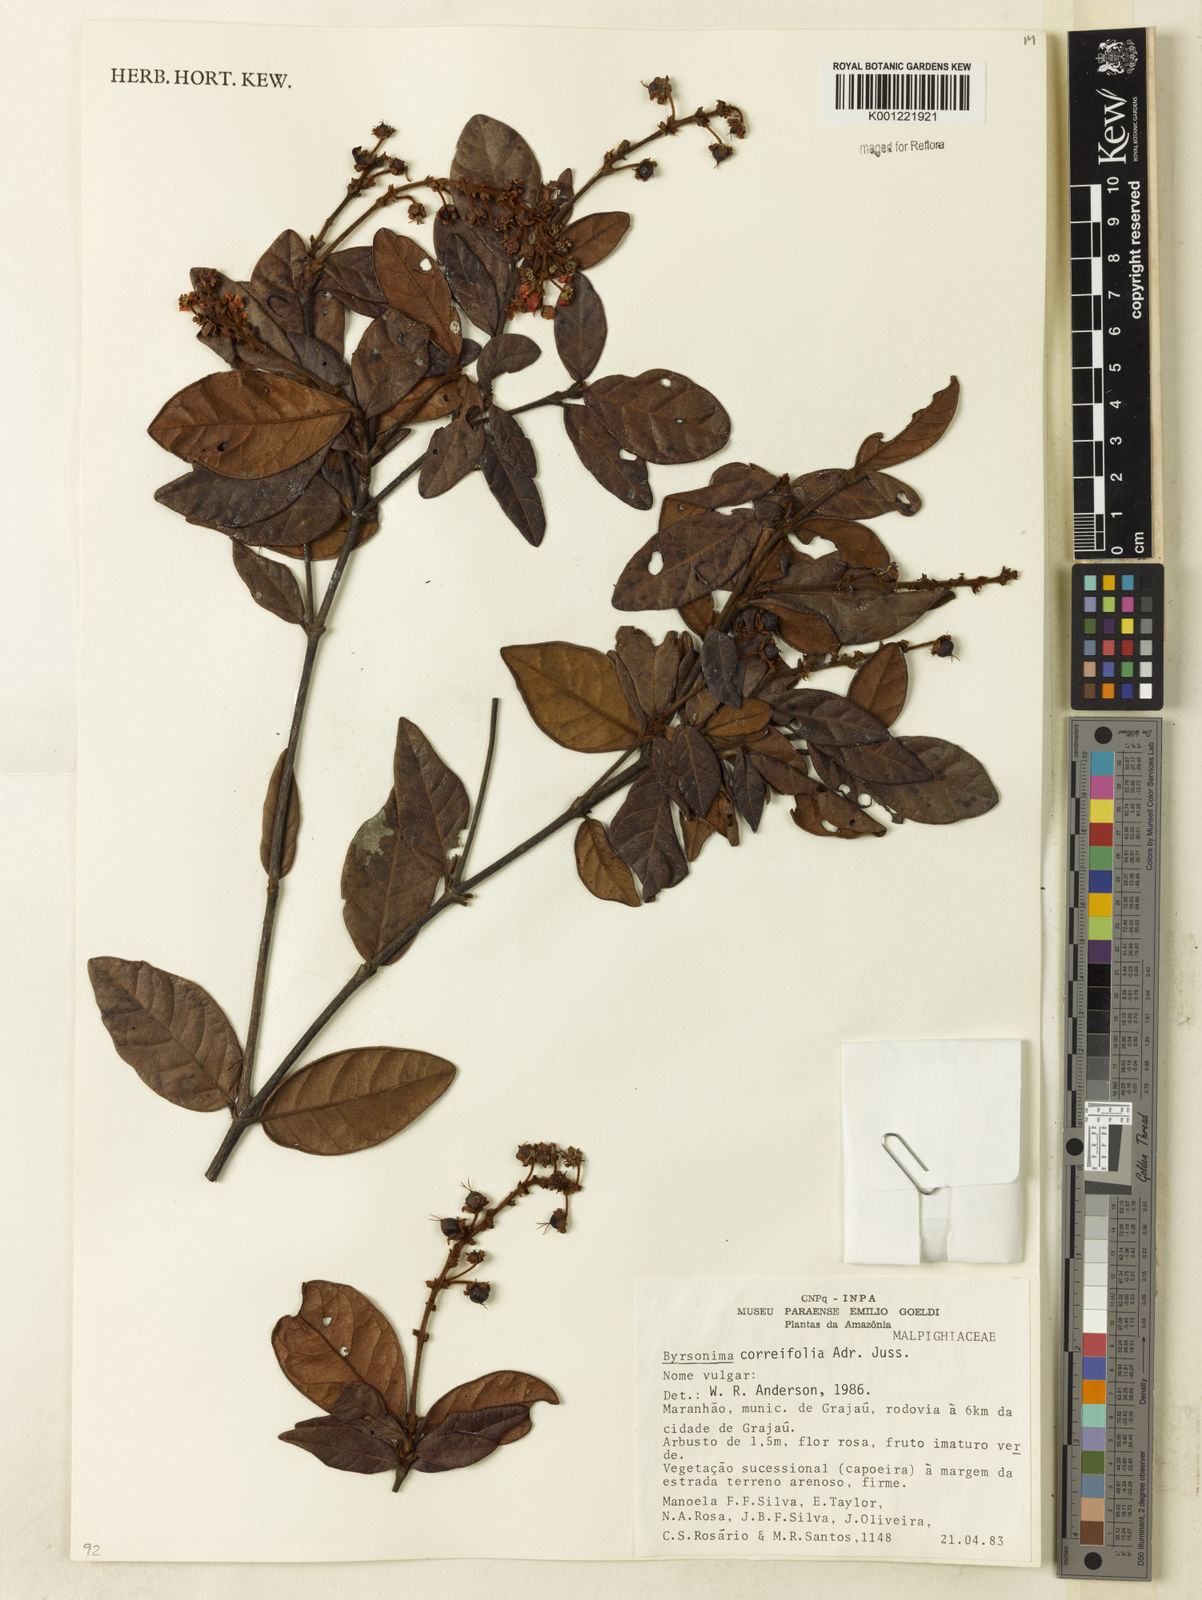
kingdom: Plantae
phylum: Tracheophyta
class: Magnoliopsida
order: Malpighiales
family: Malpighiaceae
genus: Byrsonima
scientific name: Byrsonima correifolia
